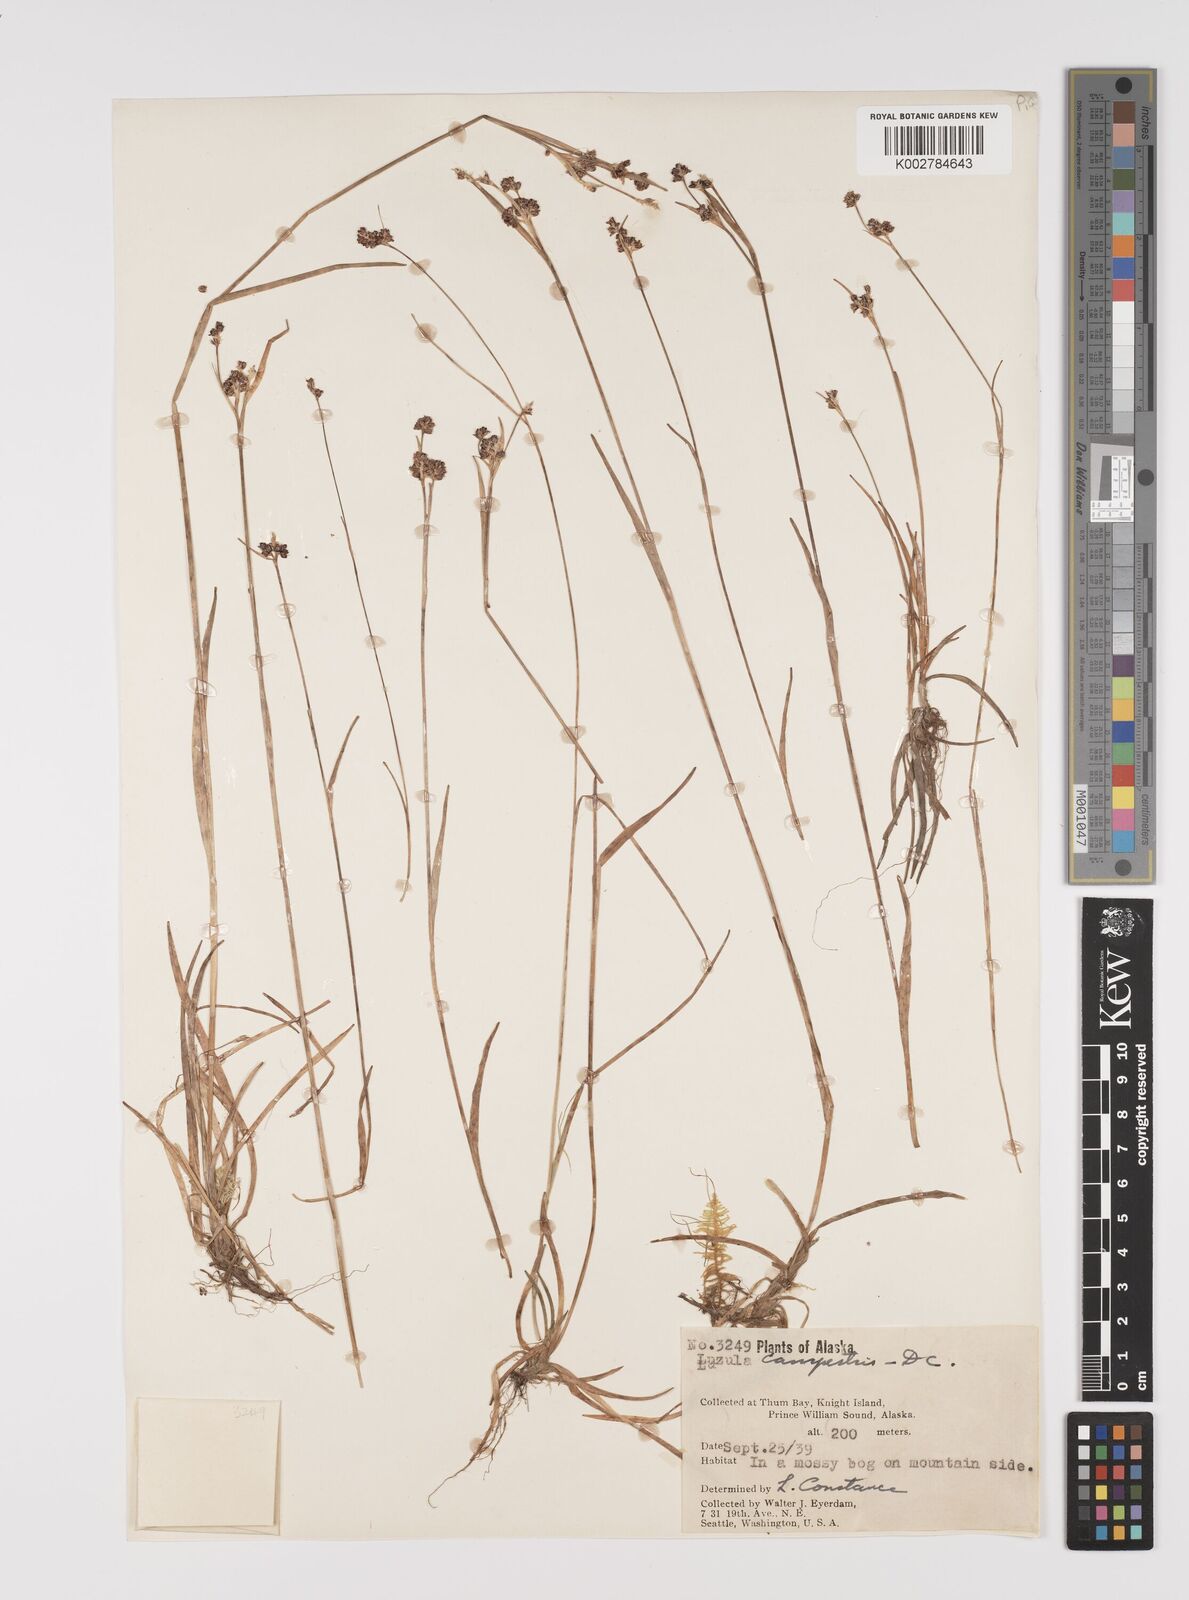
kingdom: Plantae
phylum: Tracheophyta
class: Liliopsida
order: Poales
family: Juncaceae
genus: Luzula
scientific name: Luzula campestris
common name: Field wood-rush
